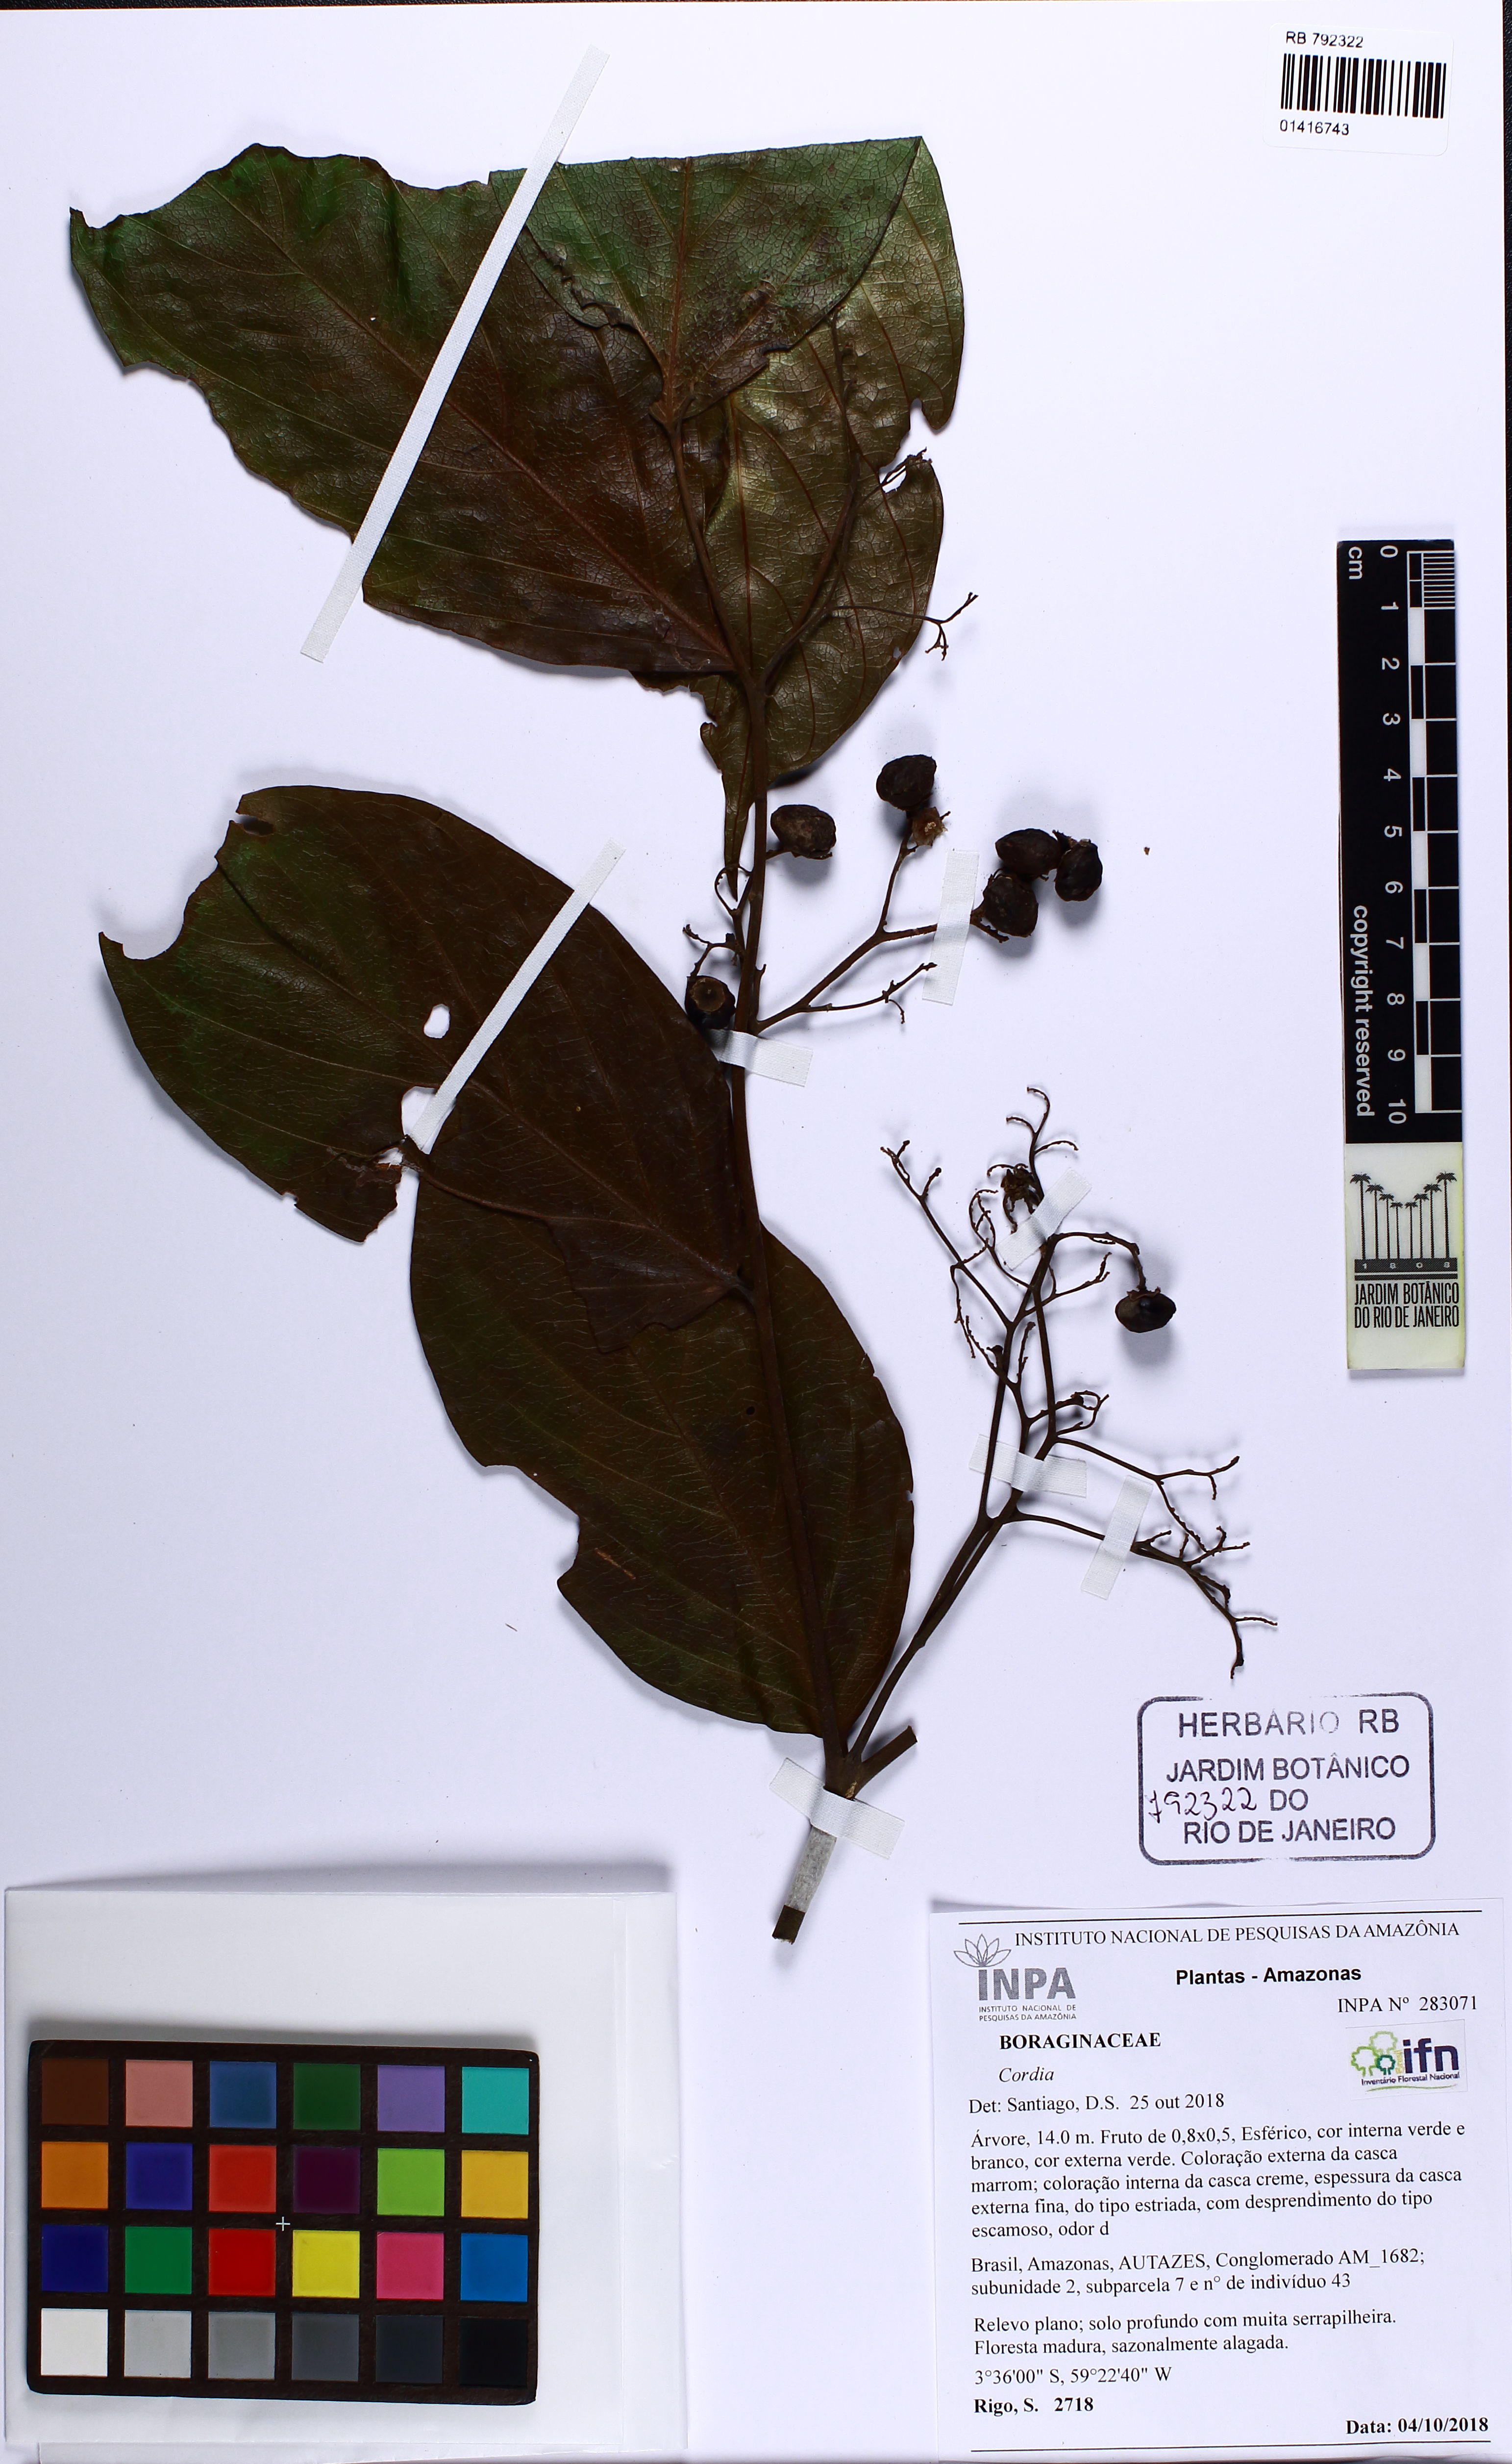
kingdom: Plantae
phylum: Tracheophyta
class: Magnoliopsida
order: Boraginales
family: Cordiaceae
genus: Cordia
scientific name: Cordia
